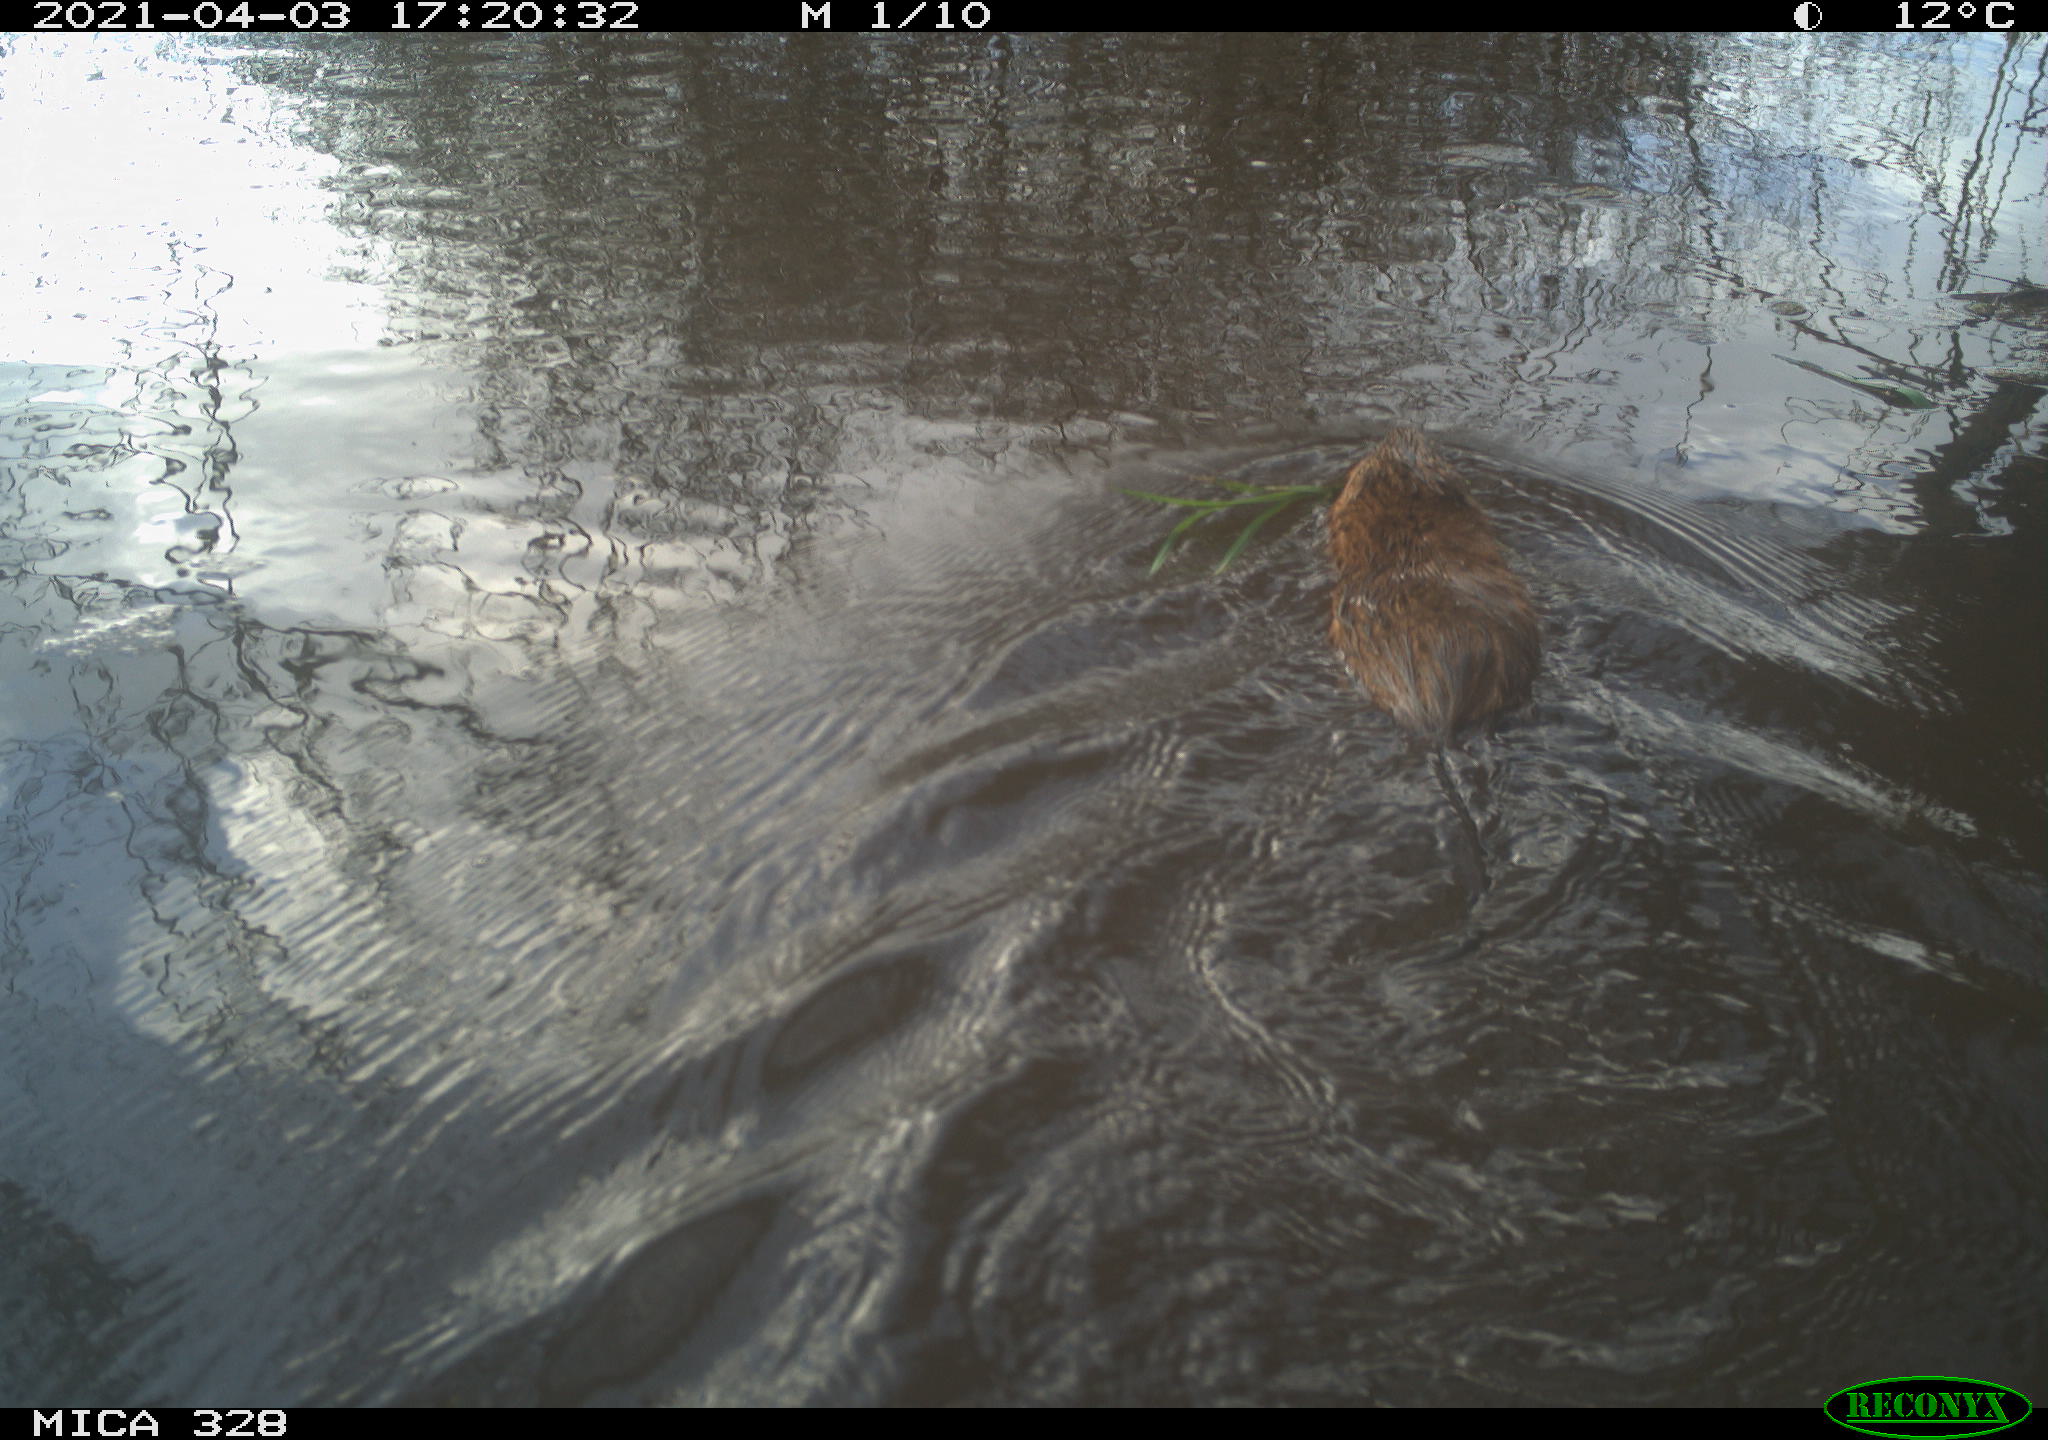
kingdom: Animalia
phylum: Chordata
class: Mammalia
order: Rodentia
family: Cricetidae
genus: Ondatra
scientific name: Ondatra zibethicus
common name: Muskrat
